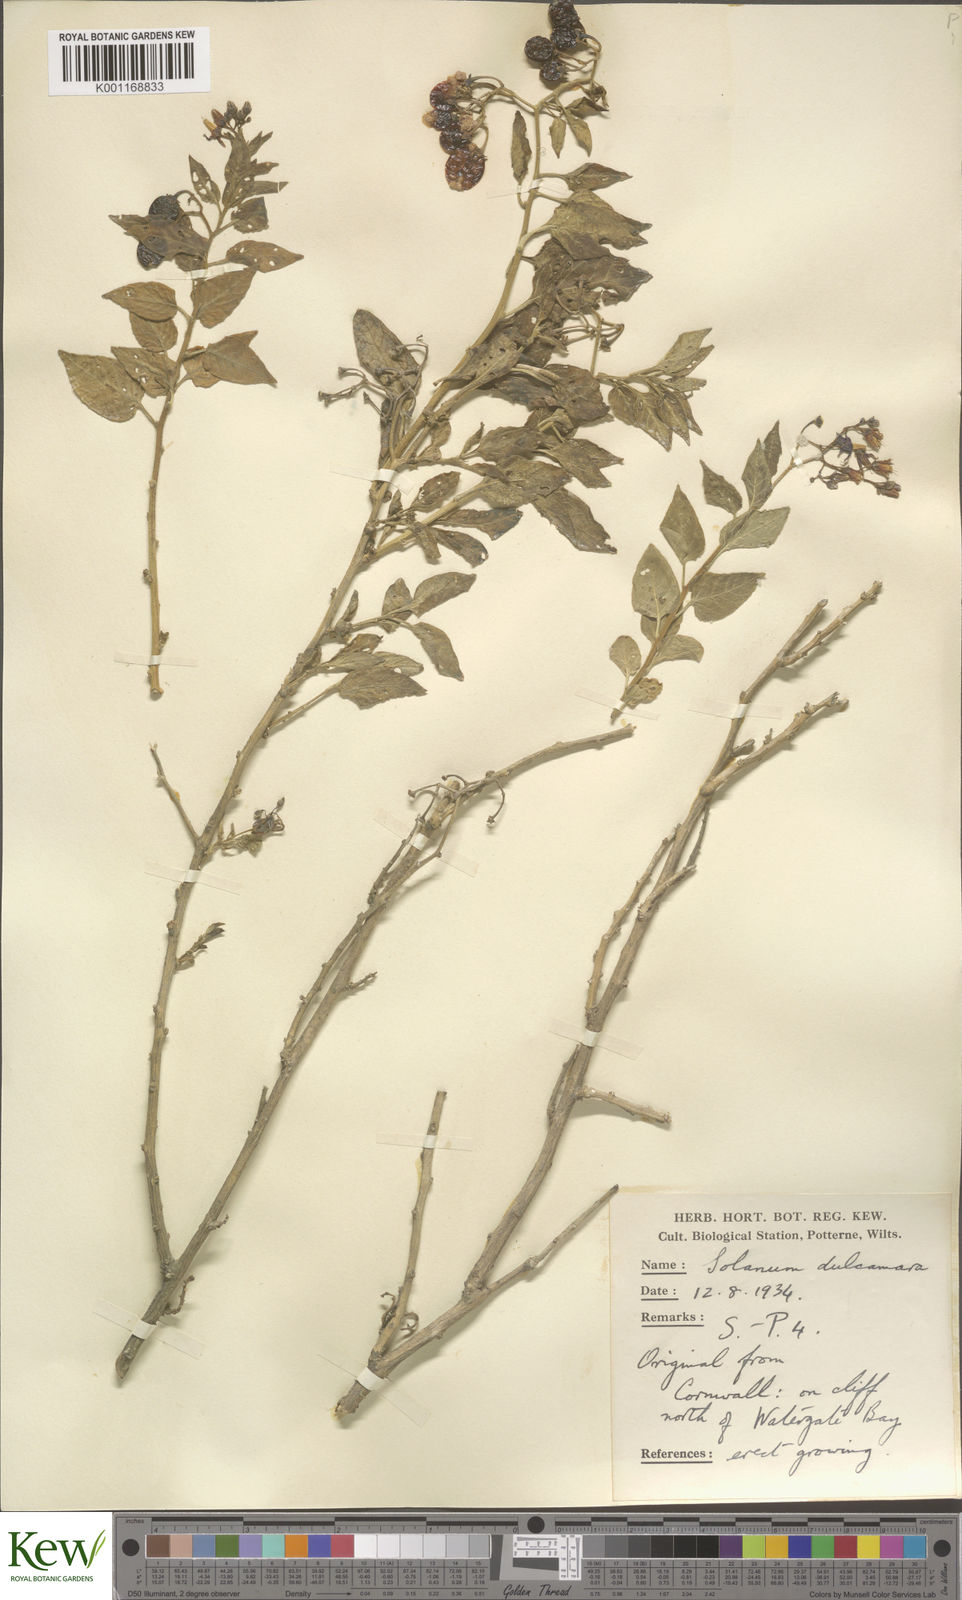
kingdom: Plantae
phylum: Tracheophyta
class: Magnoliopsida
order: Solanales
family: Solanaceae
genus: Solanum
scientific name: Solanum dulcamara
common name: Climbing nightshade
